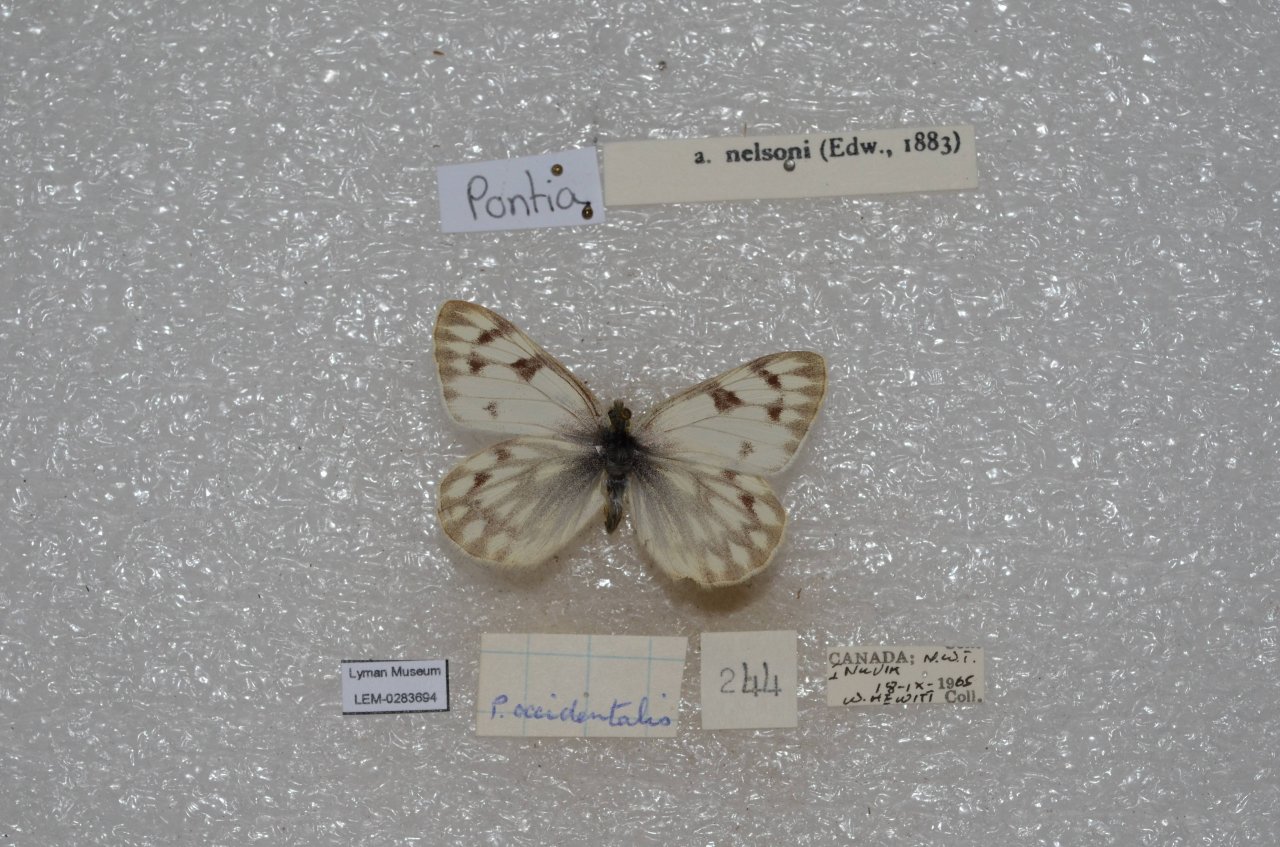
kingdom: Animalia
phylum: Arthropoda
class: Insecta
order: Lepidoptera
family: Pieridae
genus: Pontia
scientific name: Pontia occidentalis
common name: Western White
